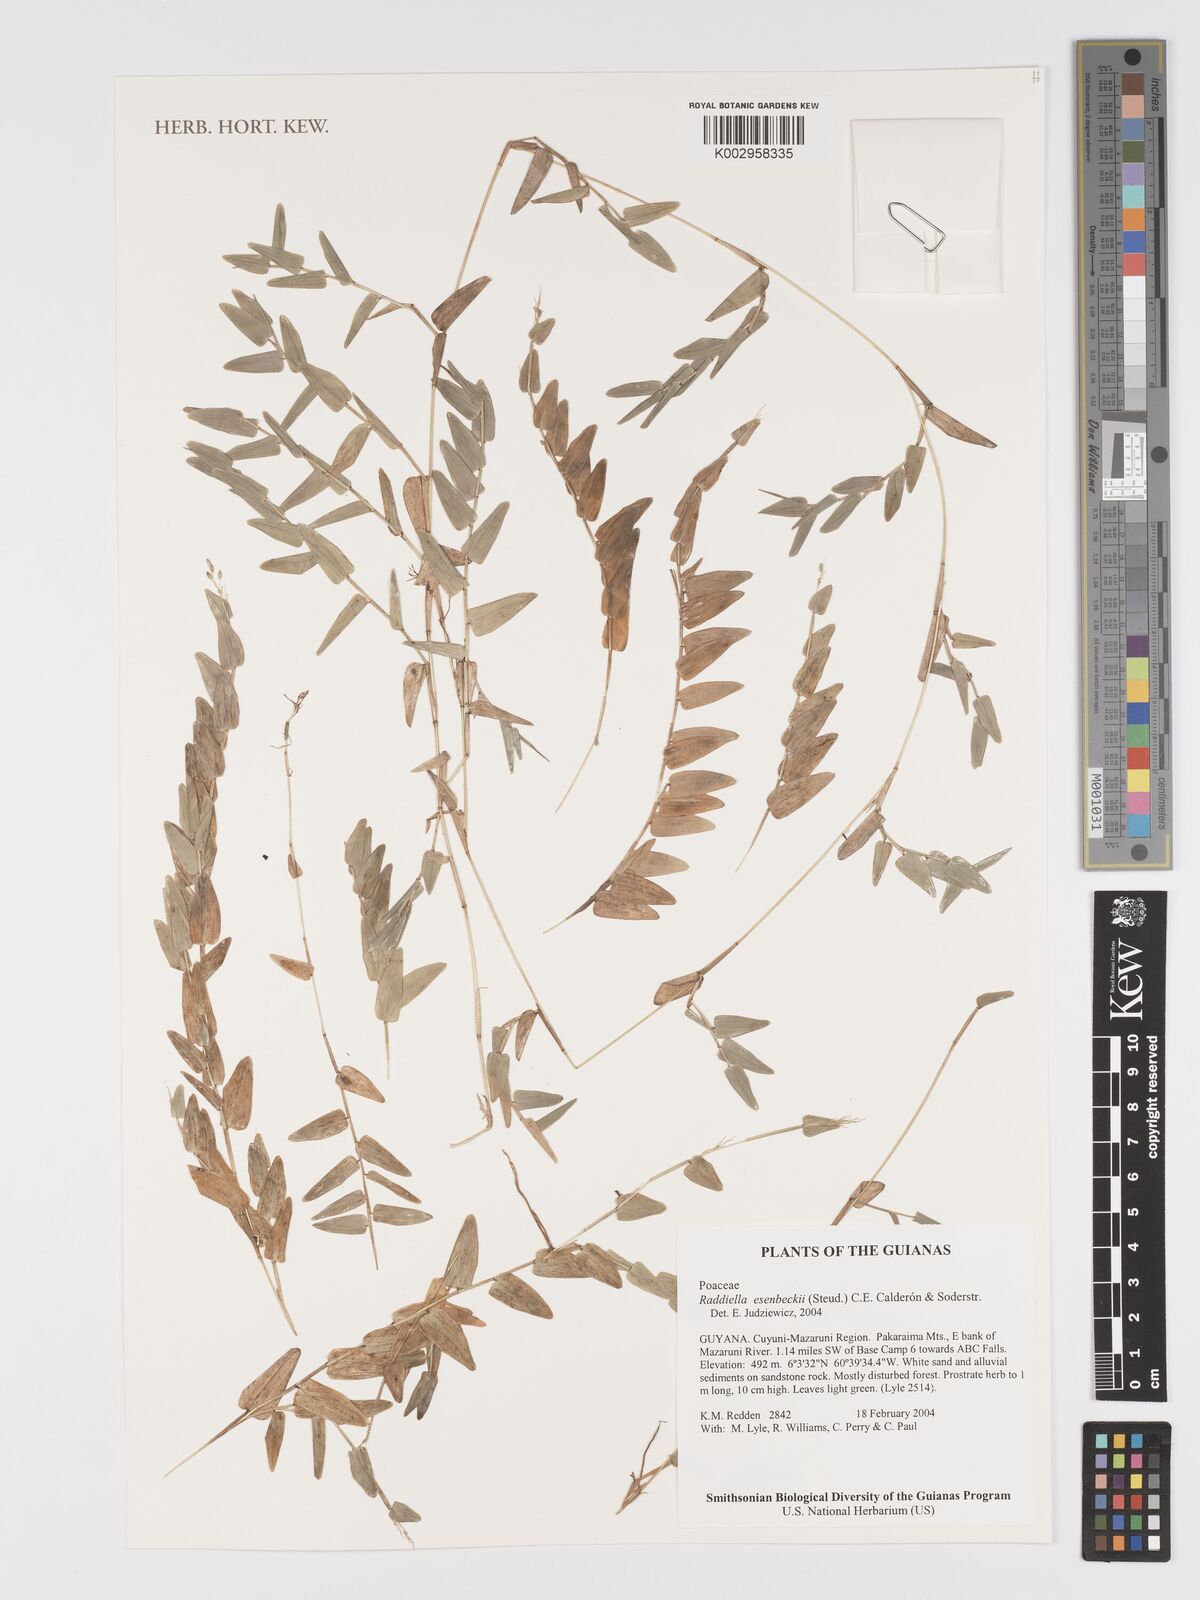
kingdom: Plantae
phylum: Tracheophyta
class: Liliopsida
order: Poales
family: Poaceae
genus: Raddiella
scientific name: Raddiella esenbeckii
